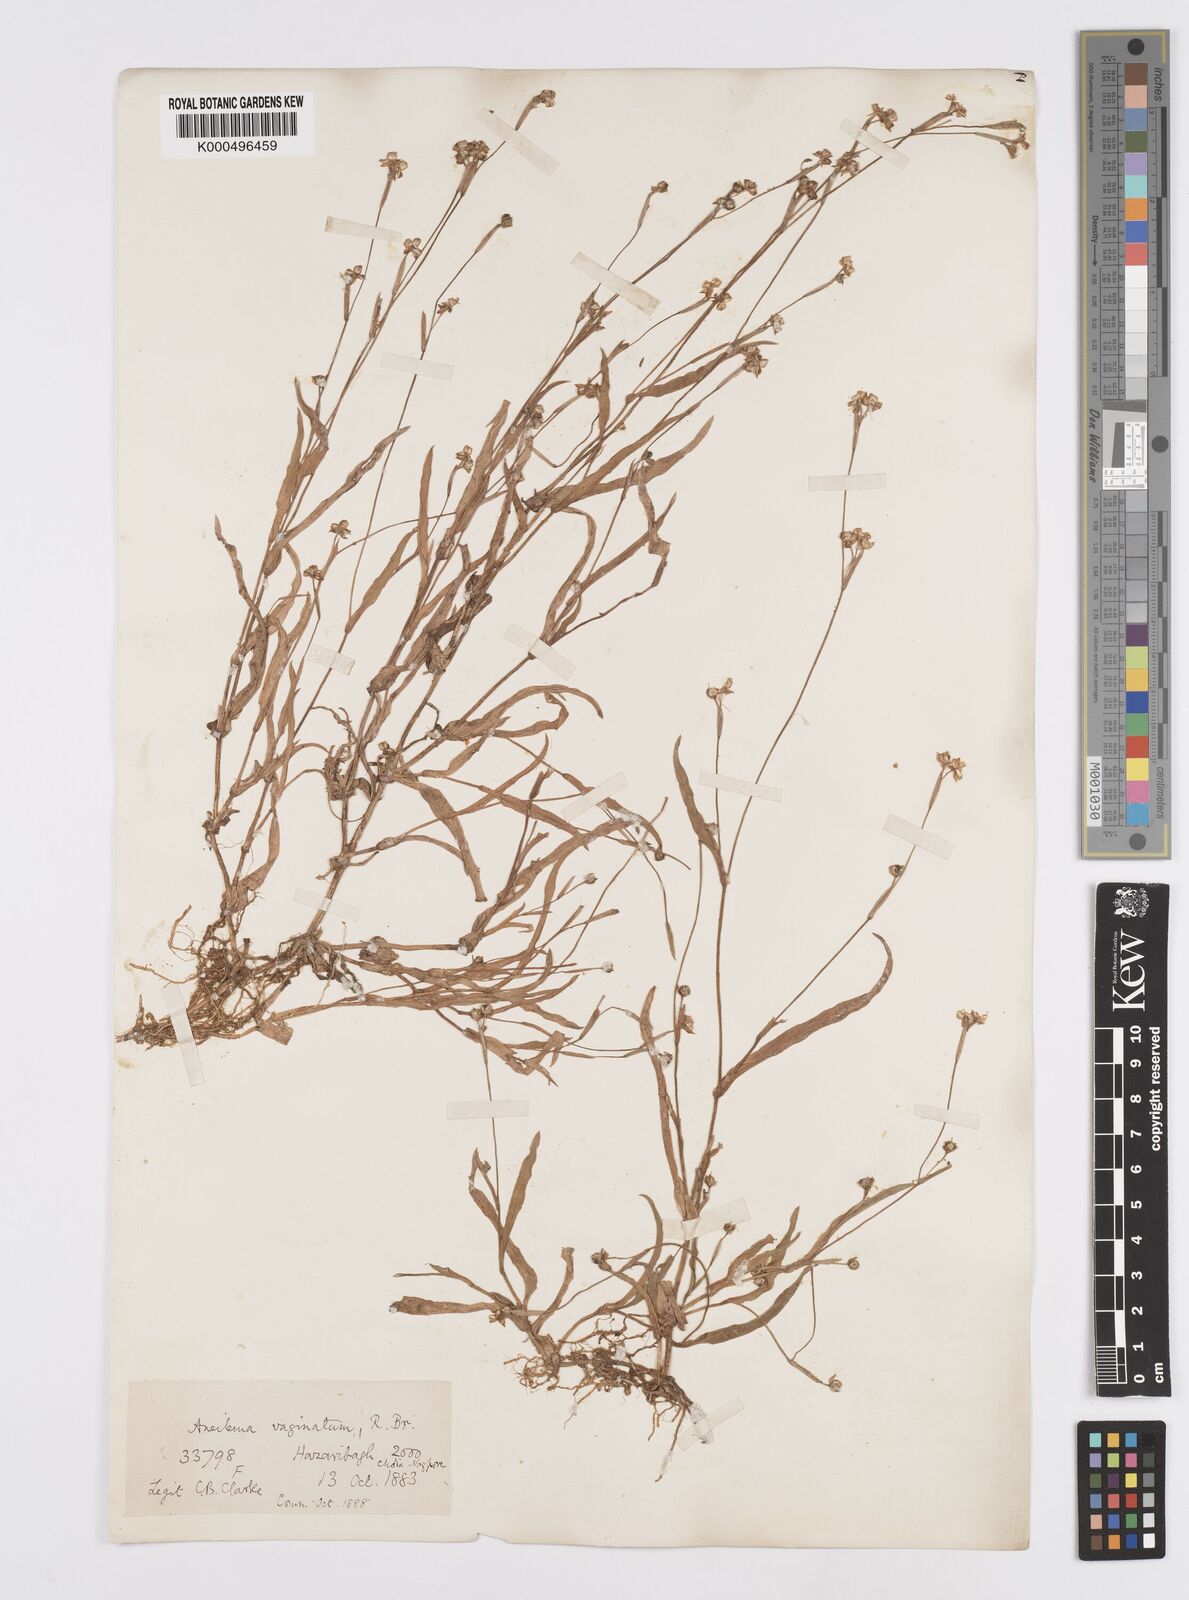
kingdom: Plantae
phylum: Tracheophyta
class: Liliopsida
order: Commelinales
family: Commelinaceae
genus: Murdannia
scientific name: Murdannia
